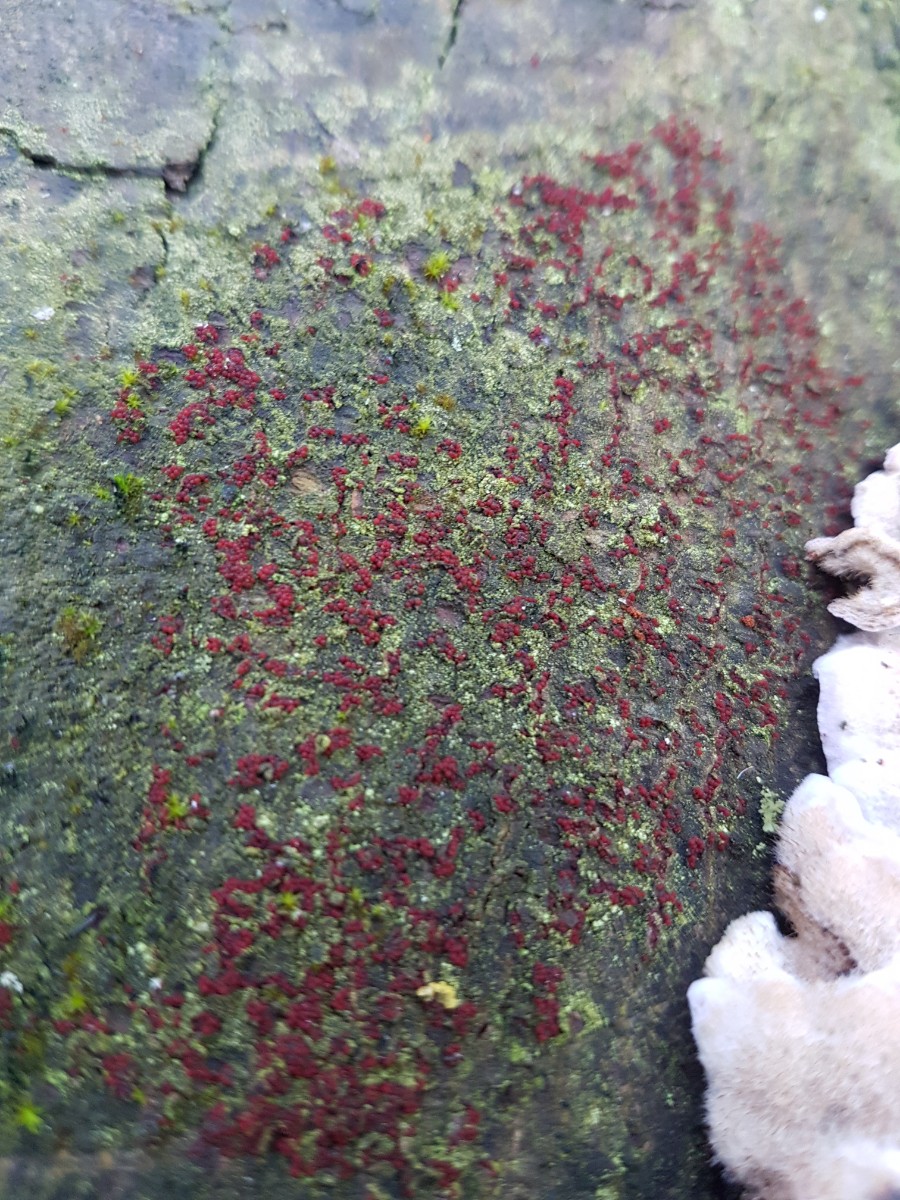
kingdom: Fungi
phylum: Ascomycota
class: Sordariomycetes
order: Hypocreales
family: Nectriaceae
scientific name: Nectriaceae
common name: cinnobersvampfamilien
